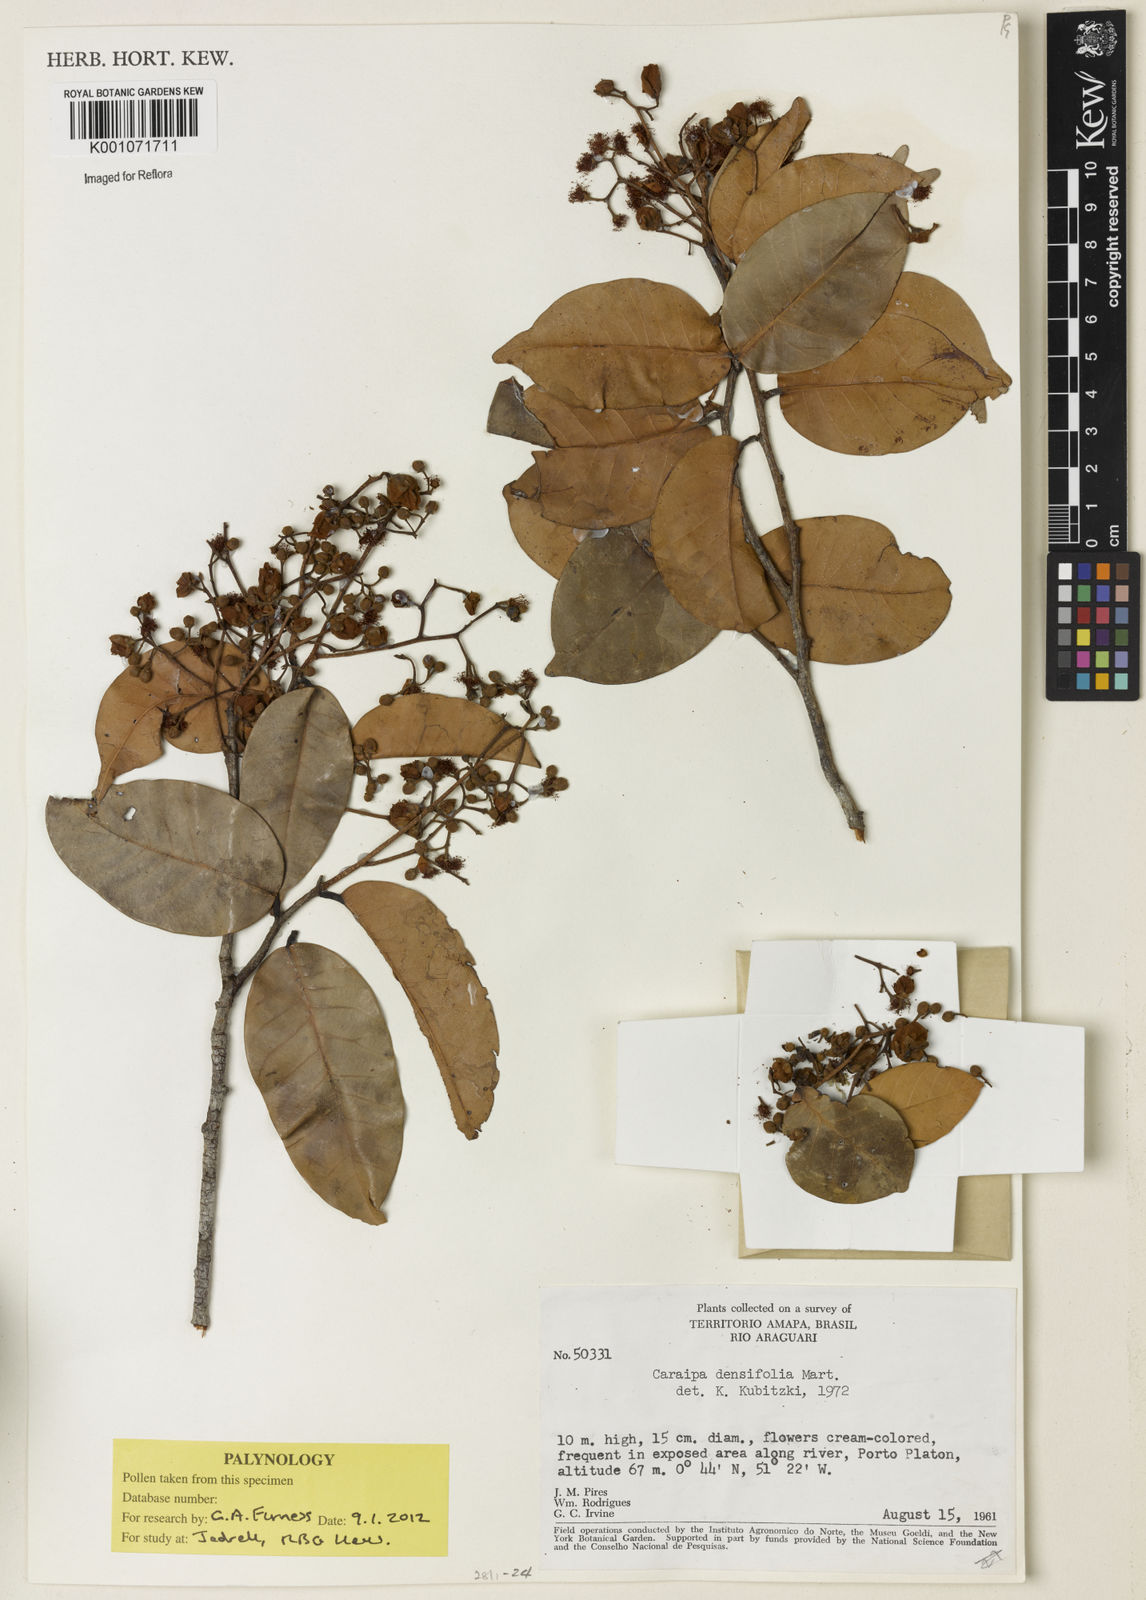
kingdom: Plantae
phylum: Tracheophyta
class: Magnoliopsida
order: Malpighiales
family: Calophyllaceae
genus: Caraipa
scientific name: Caraipa densifolia
